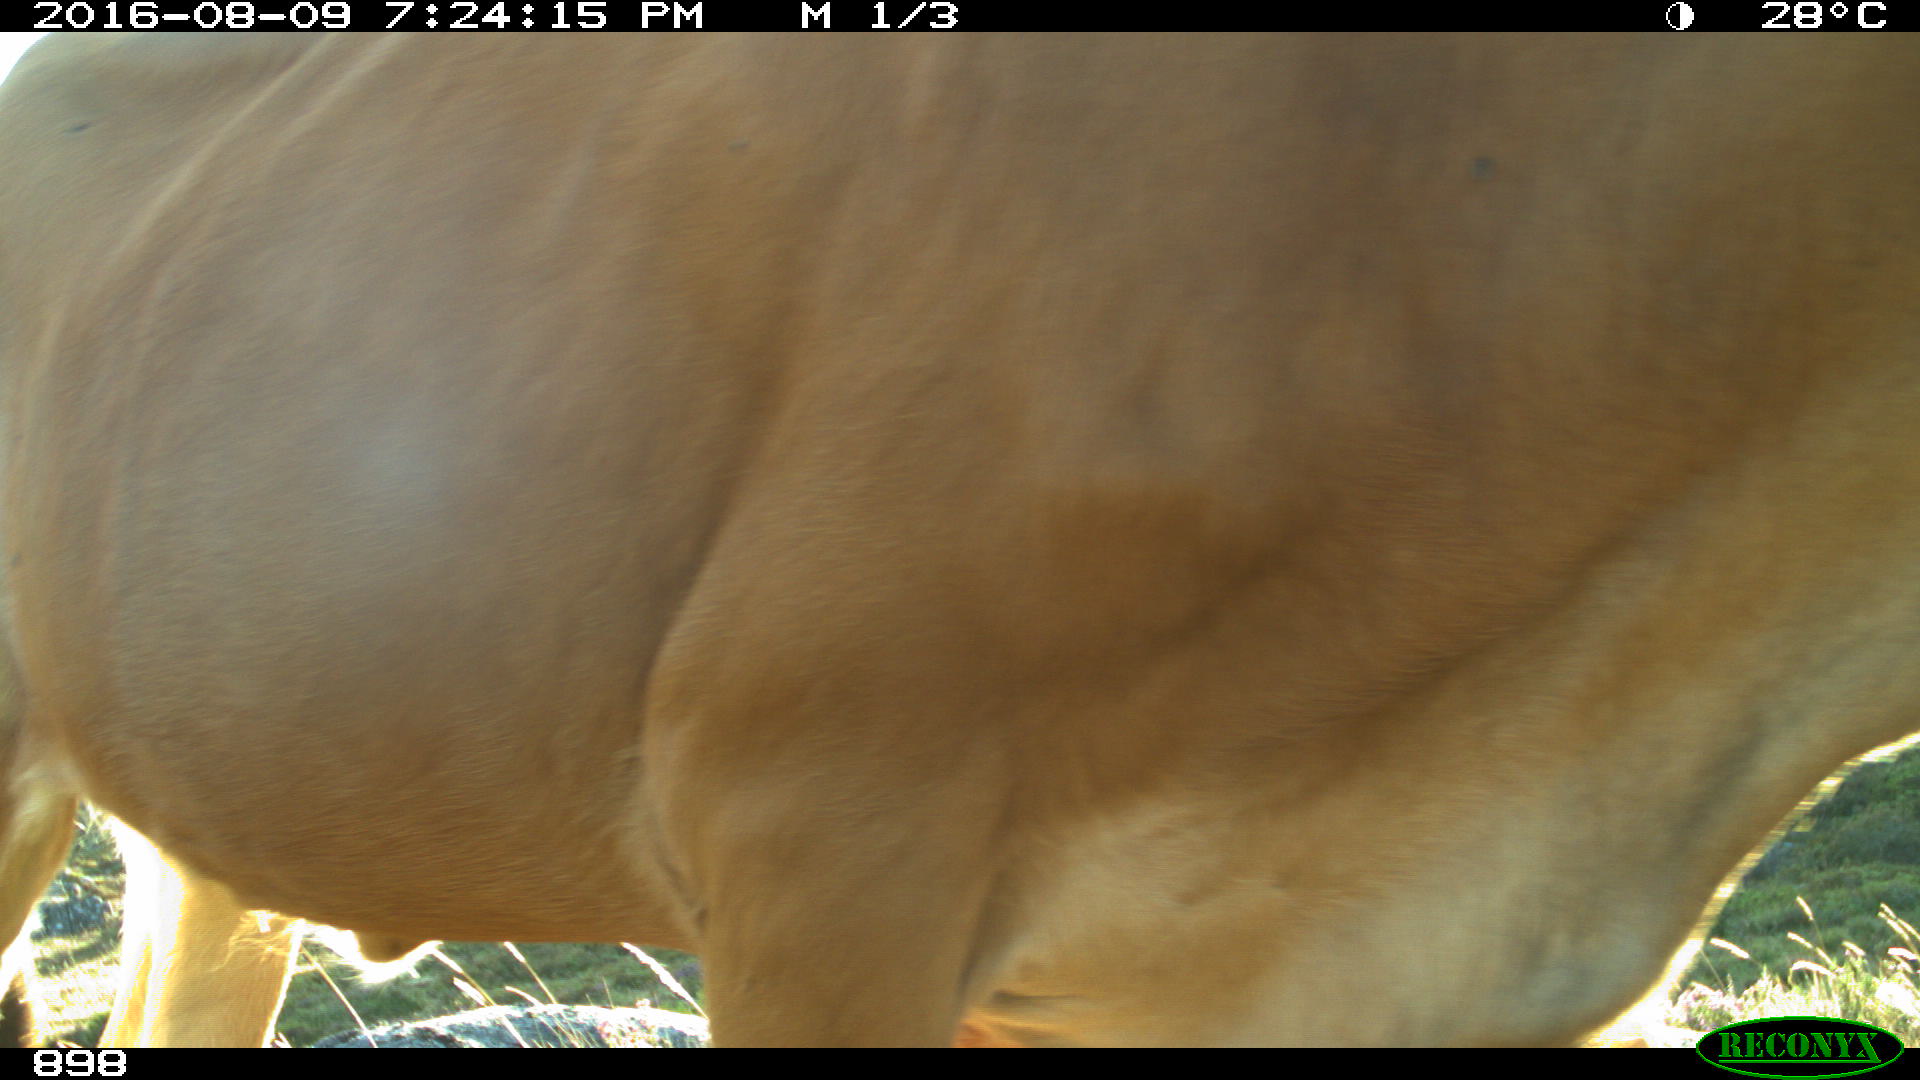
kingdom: Animalia
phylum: Chordata
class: Mammalia
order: Artiodactyla
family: Bovidae
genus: Bos
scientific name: Bos taurus
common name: Domesticated cattle
